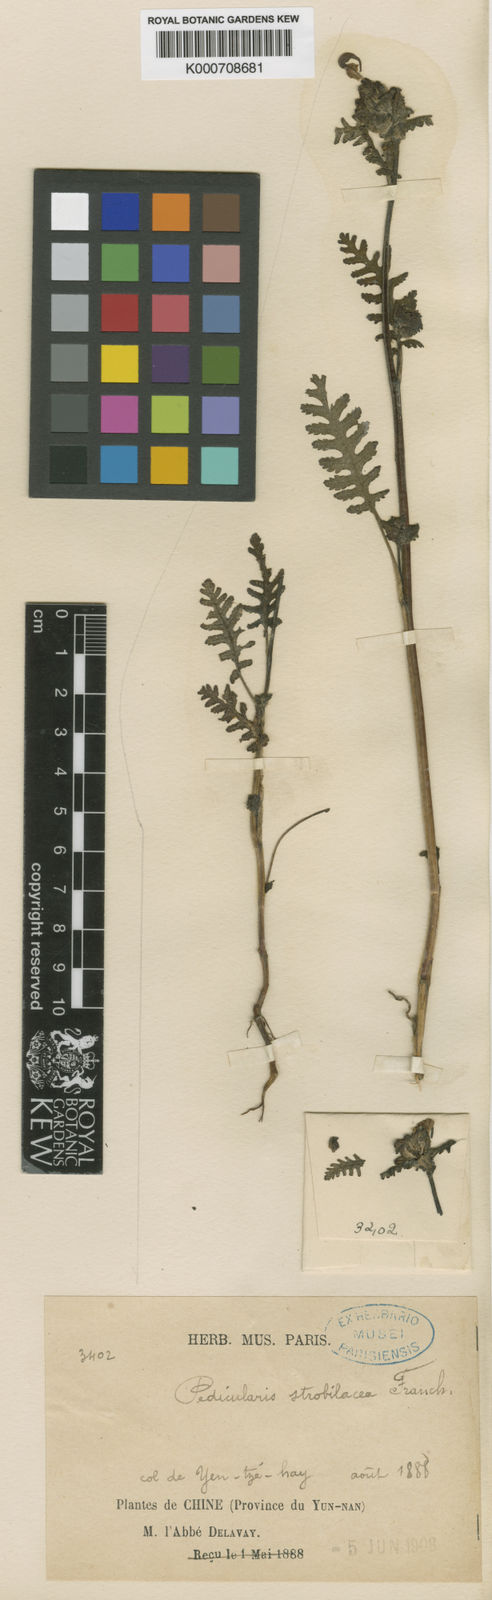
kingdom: Plantae
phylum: Tracheophyta
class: Magnoliopsida
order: Lamiales
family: Orobanchaceae
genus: Pedicularis
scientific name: Pedicularis
